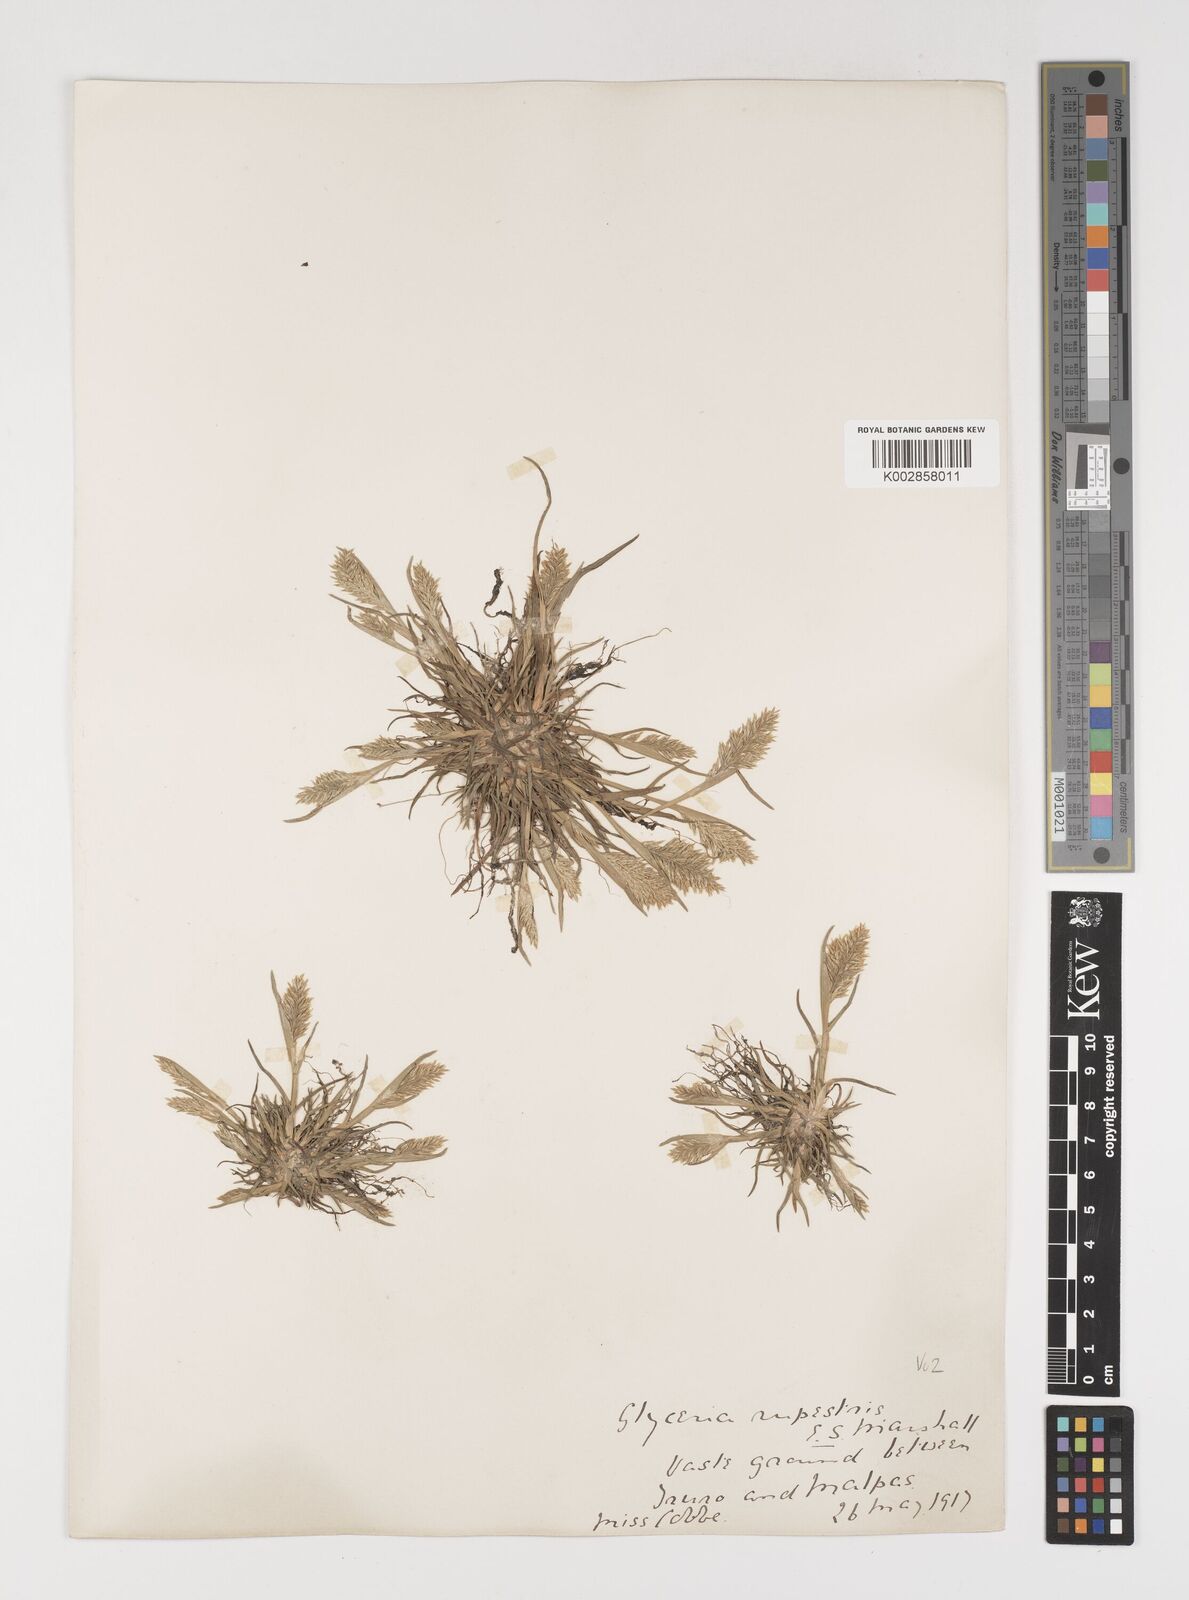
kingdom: Plantae
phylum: Tracheophyta
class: Liliopsida
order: Poales
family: Poaceae
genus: Puccinellia
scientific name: Puccinellia rupestris
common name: Stiff saltmarsh-grass
